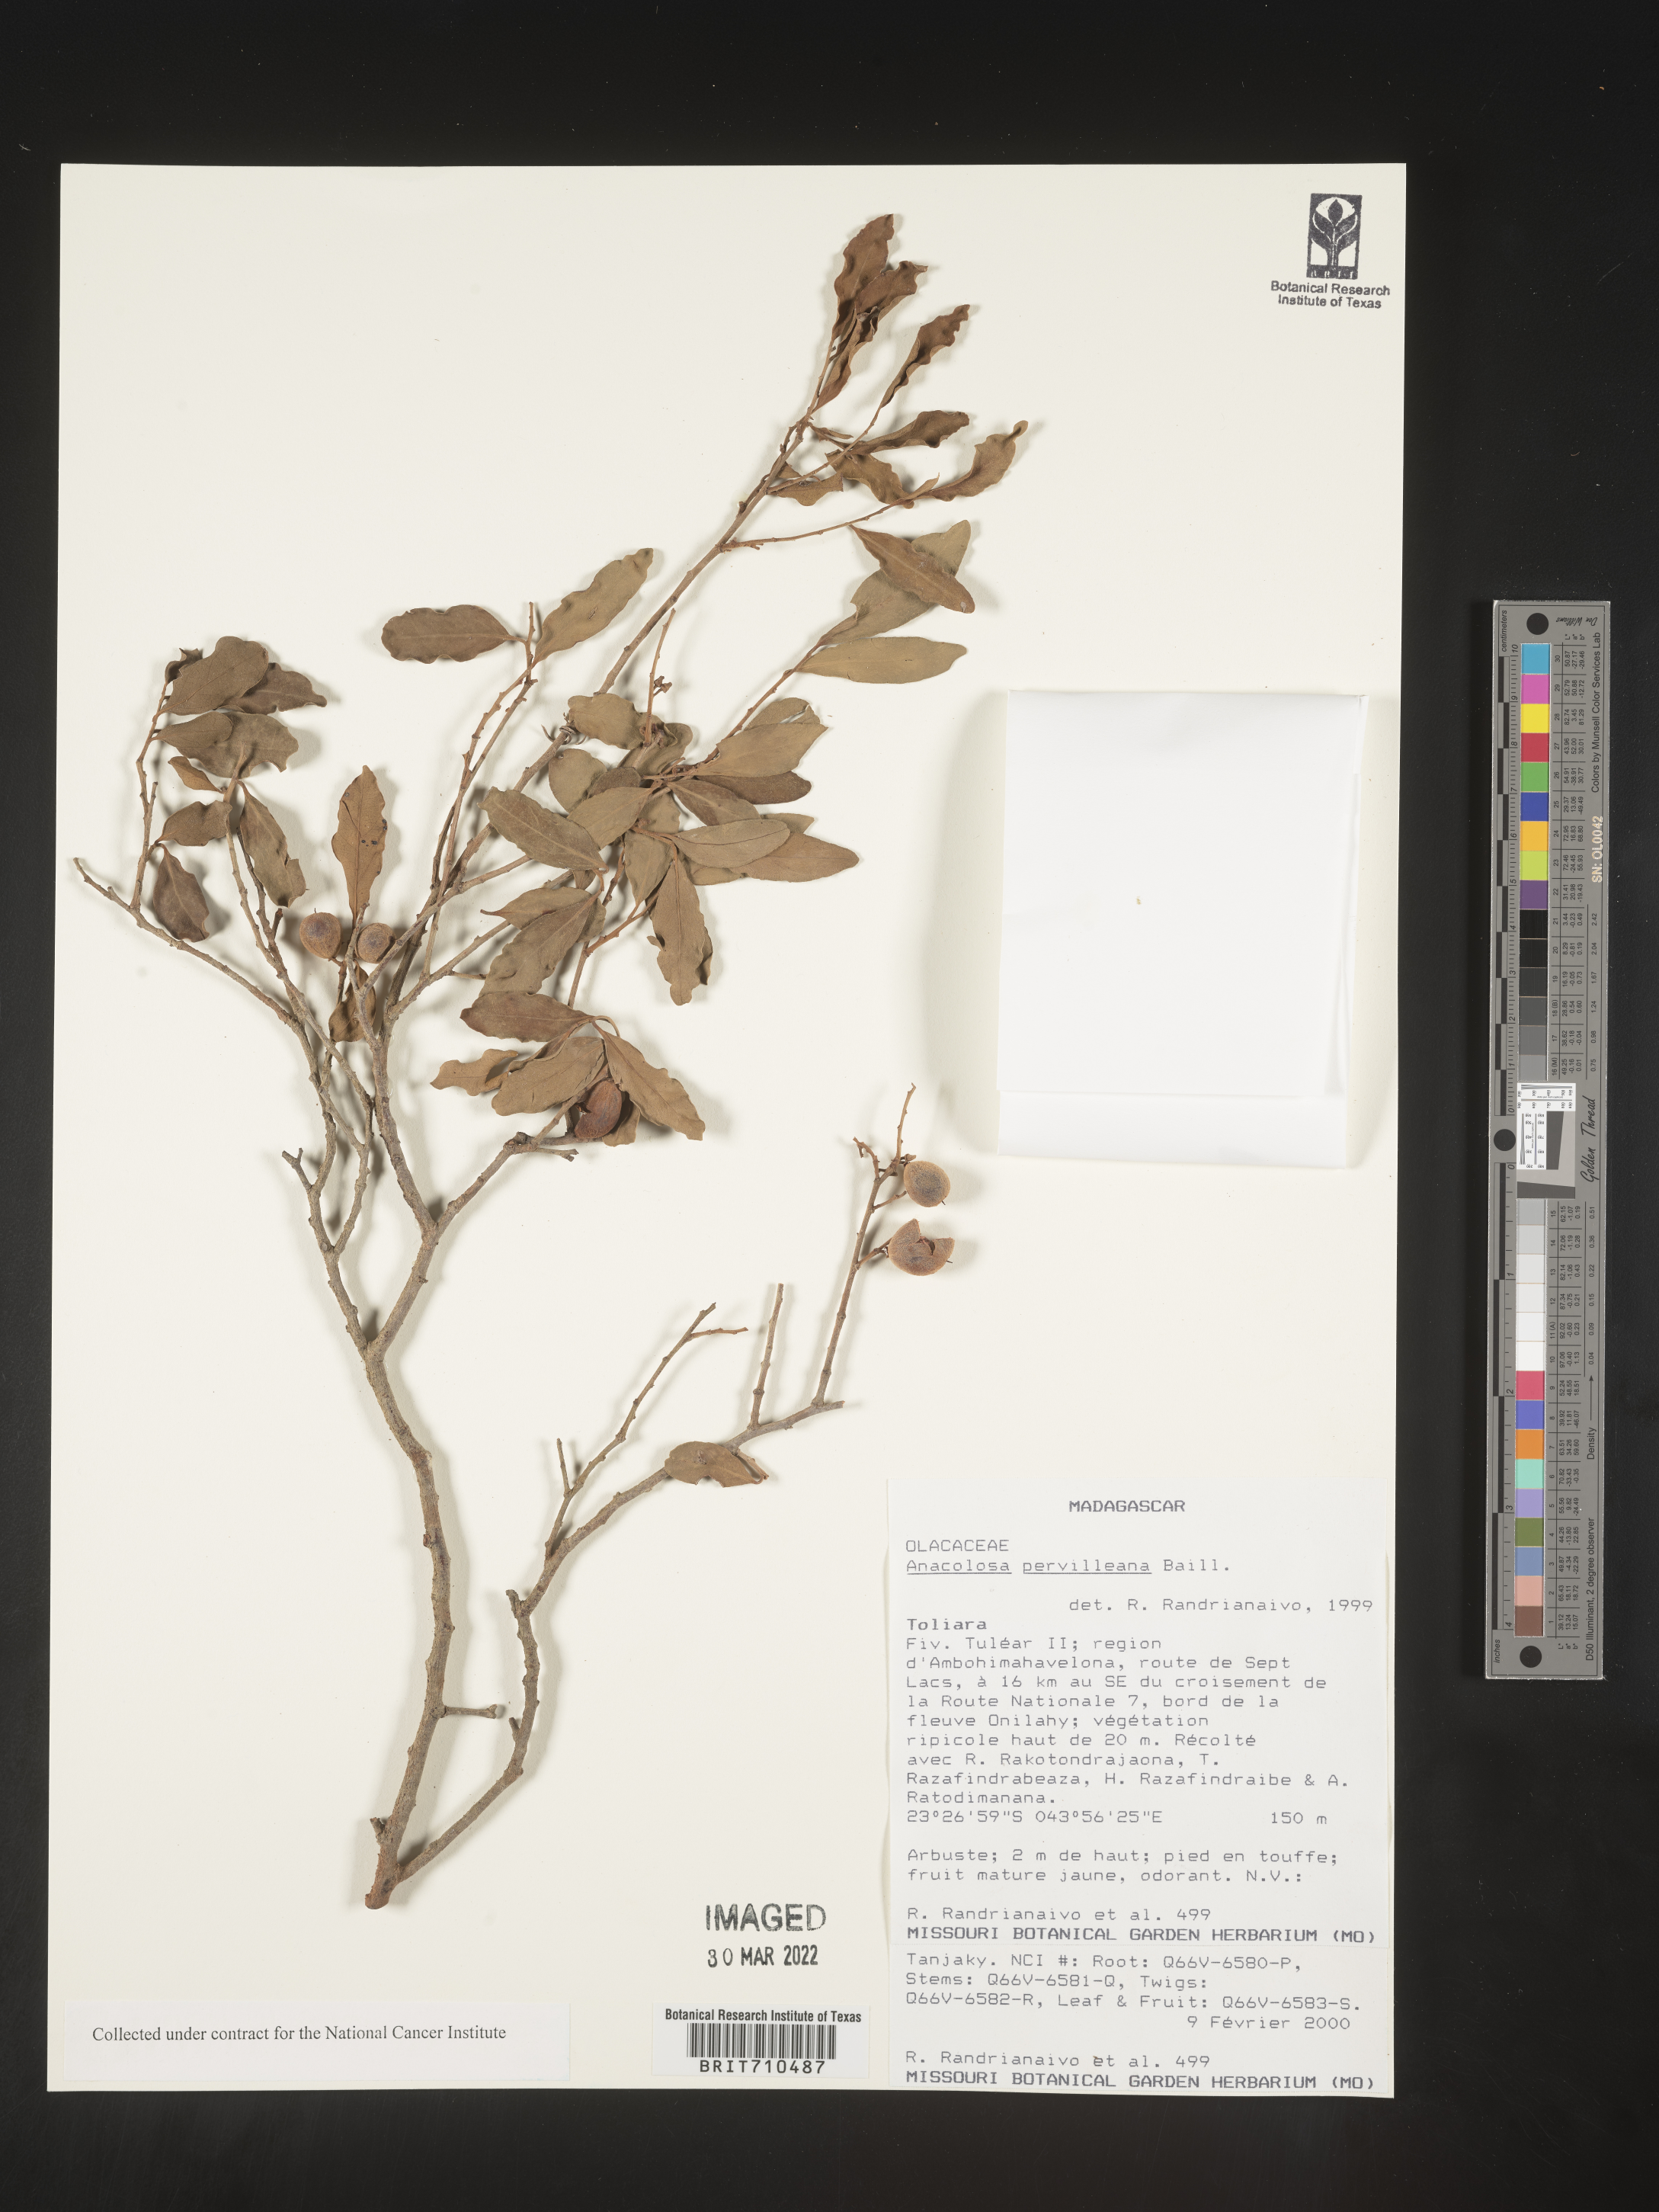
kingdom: Plantae
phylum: Tracheophyta
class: Magnoliopsida
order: Santalales
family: Aptandraceae
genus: Anacolosa
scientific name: Anacolosa
